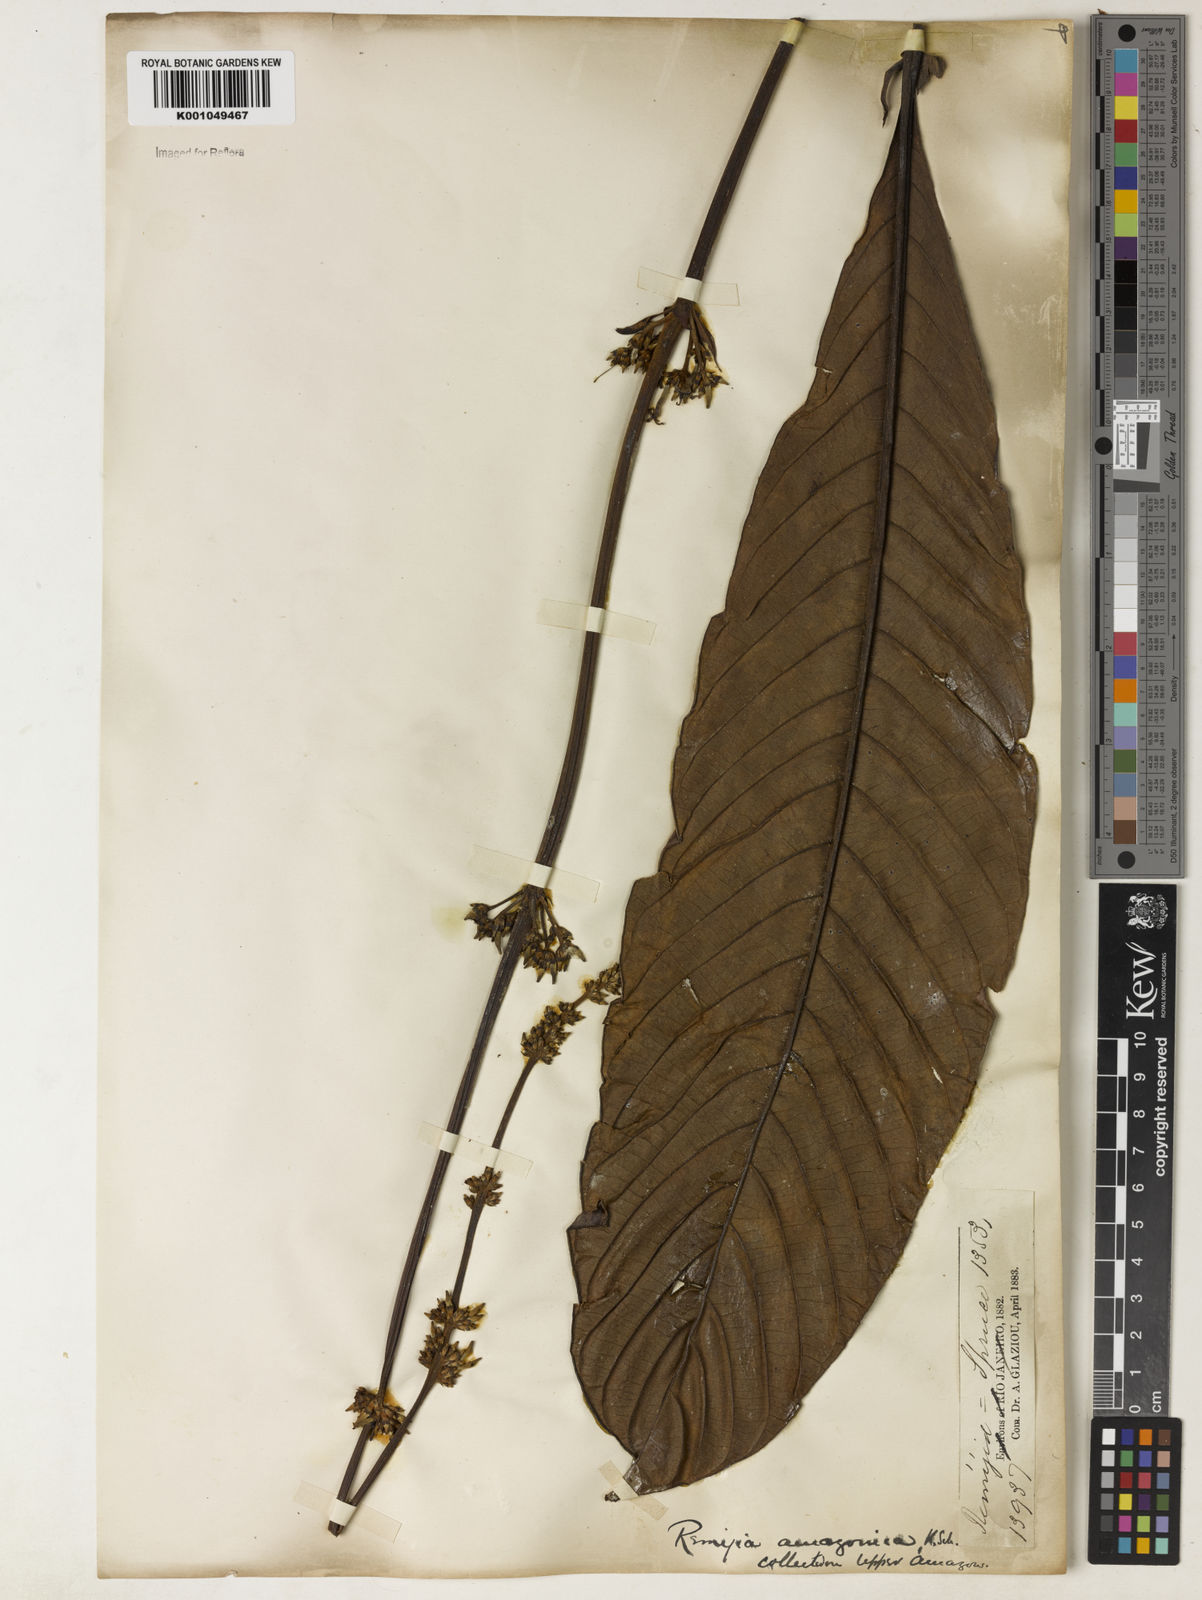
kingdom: Plantae
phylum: Tracheophyta
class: Magnoliopsida
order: Gentianales
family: Rubiaceae
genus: Remijia
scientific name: Remijia amazonica
